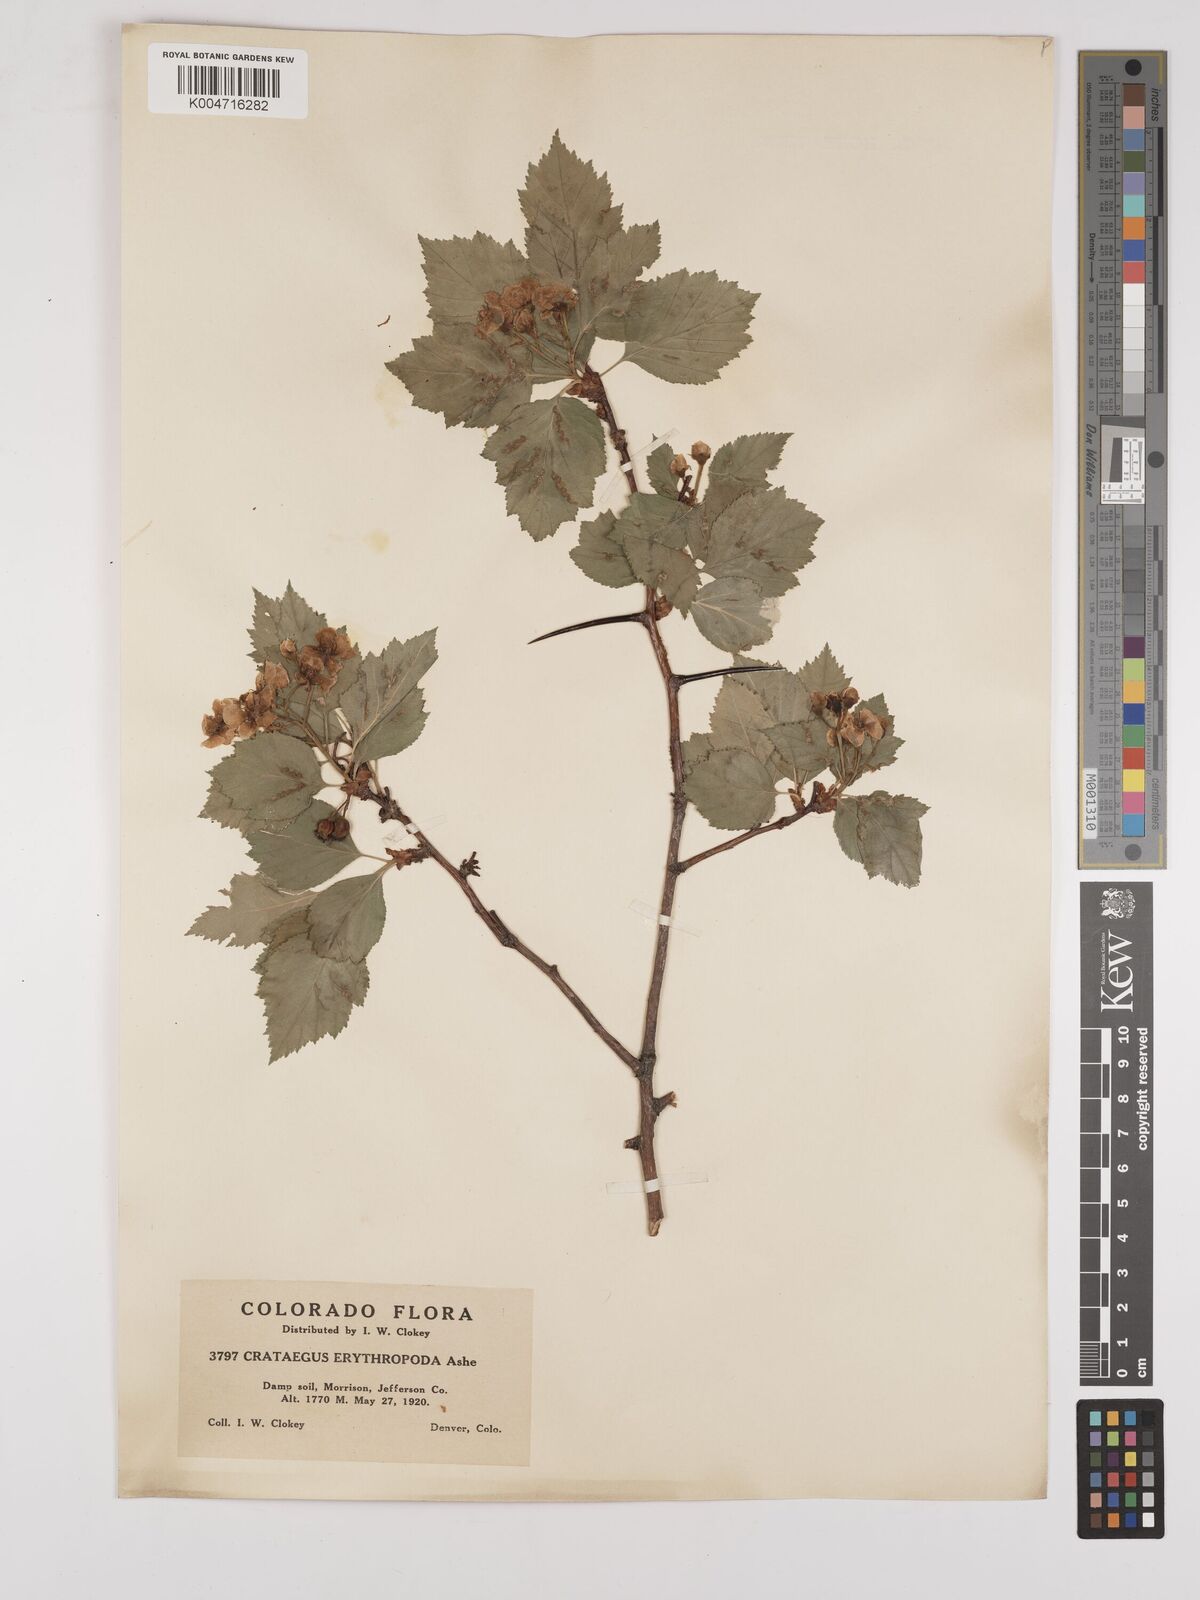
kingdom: Plantae
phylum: Tracheophyta
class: Magnoliopsida
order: Rosales
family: Rosaceae
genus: Crataegus
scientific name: Crataegus erythropoda
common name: Cerro hawthorn
